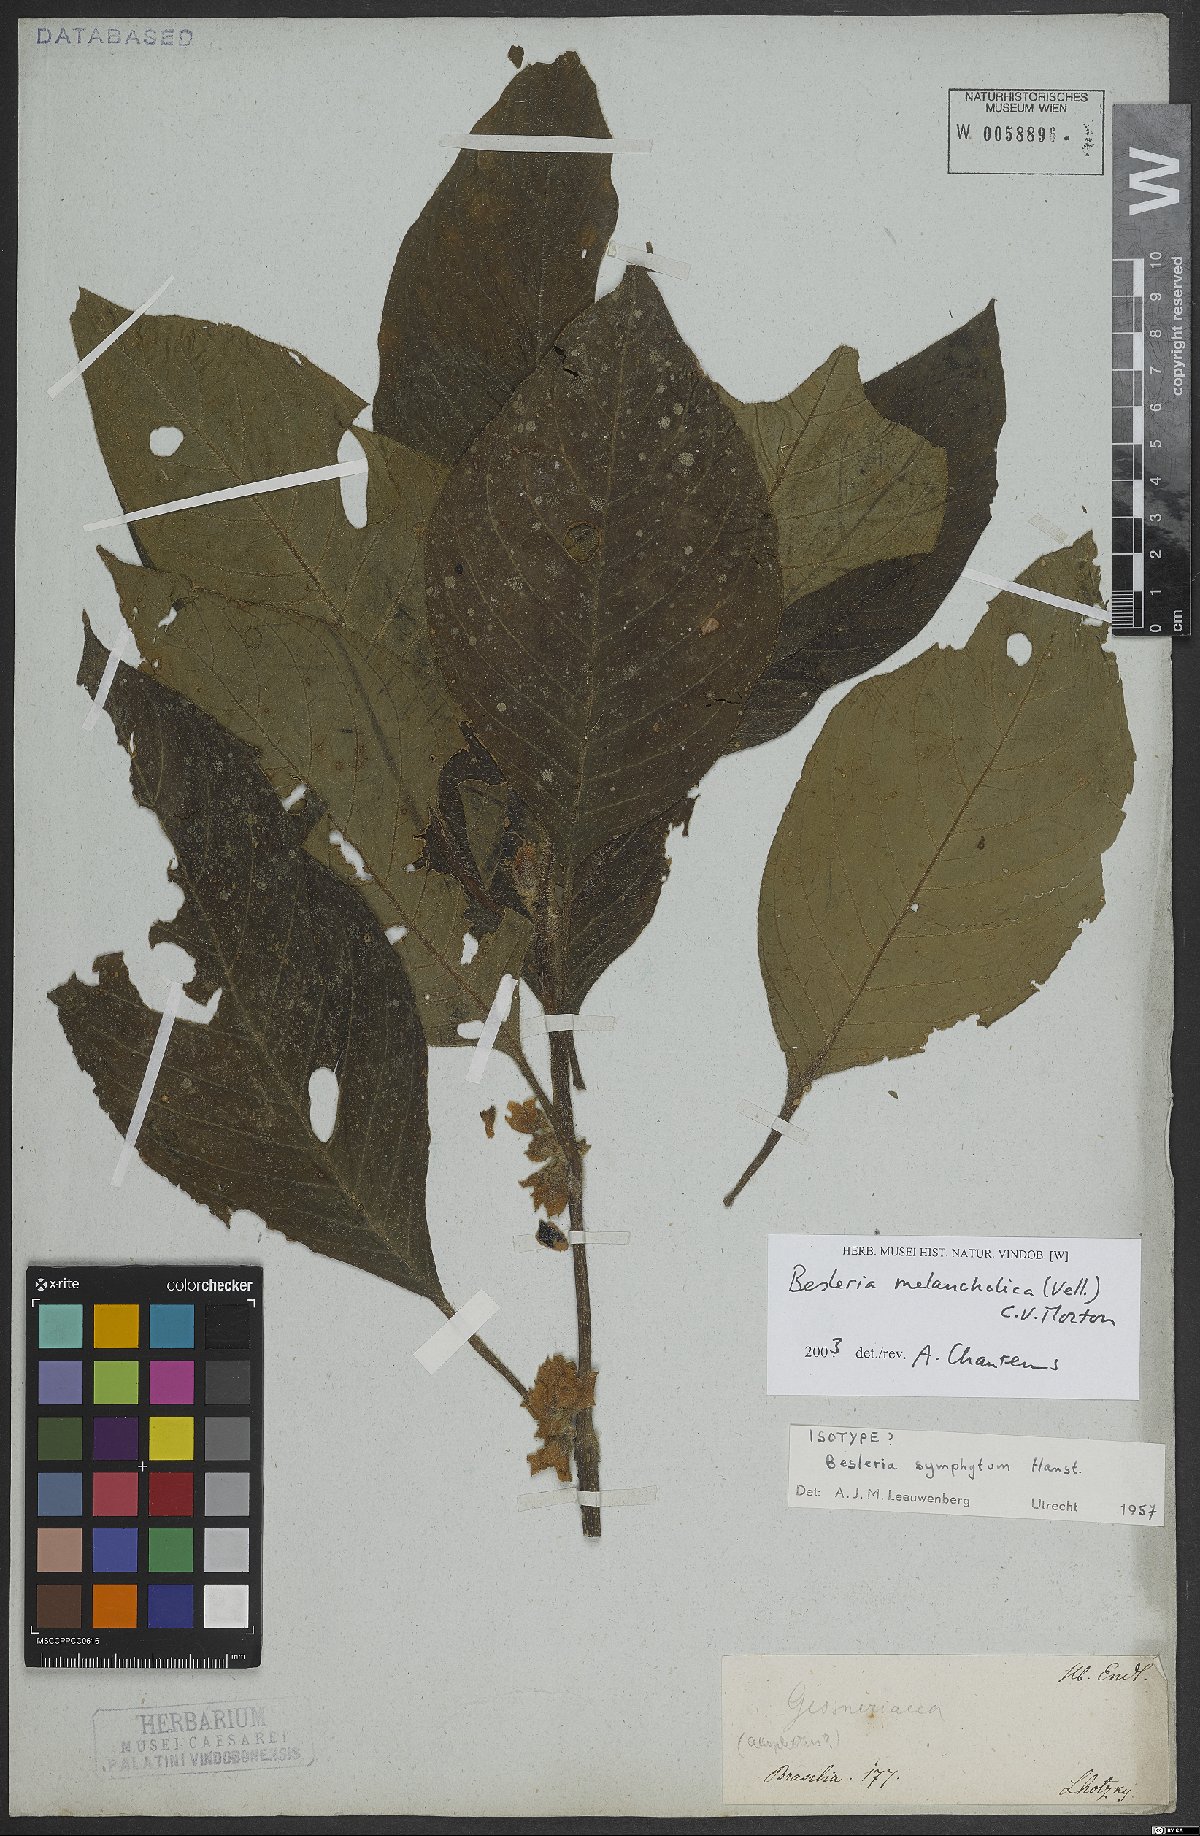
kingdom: Plantae
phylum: Tracheophyta
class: Magnoliopsida
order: Lamiales
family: Gesneriaceae
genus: Besleria
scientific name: Besleria melancholica
